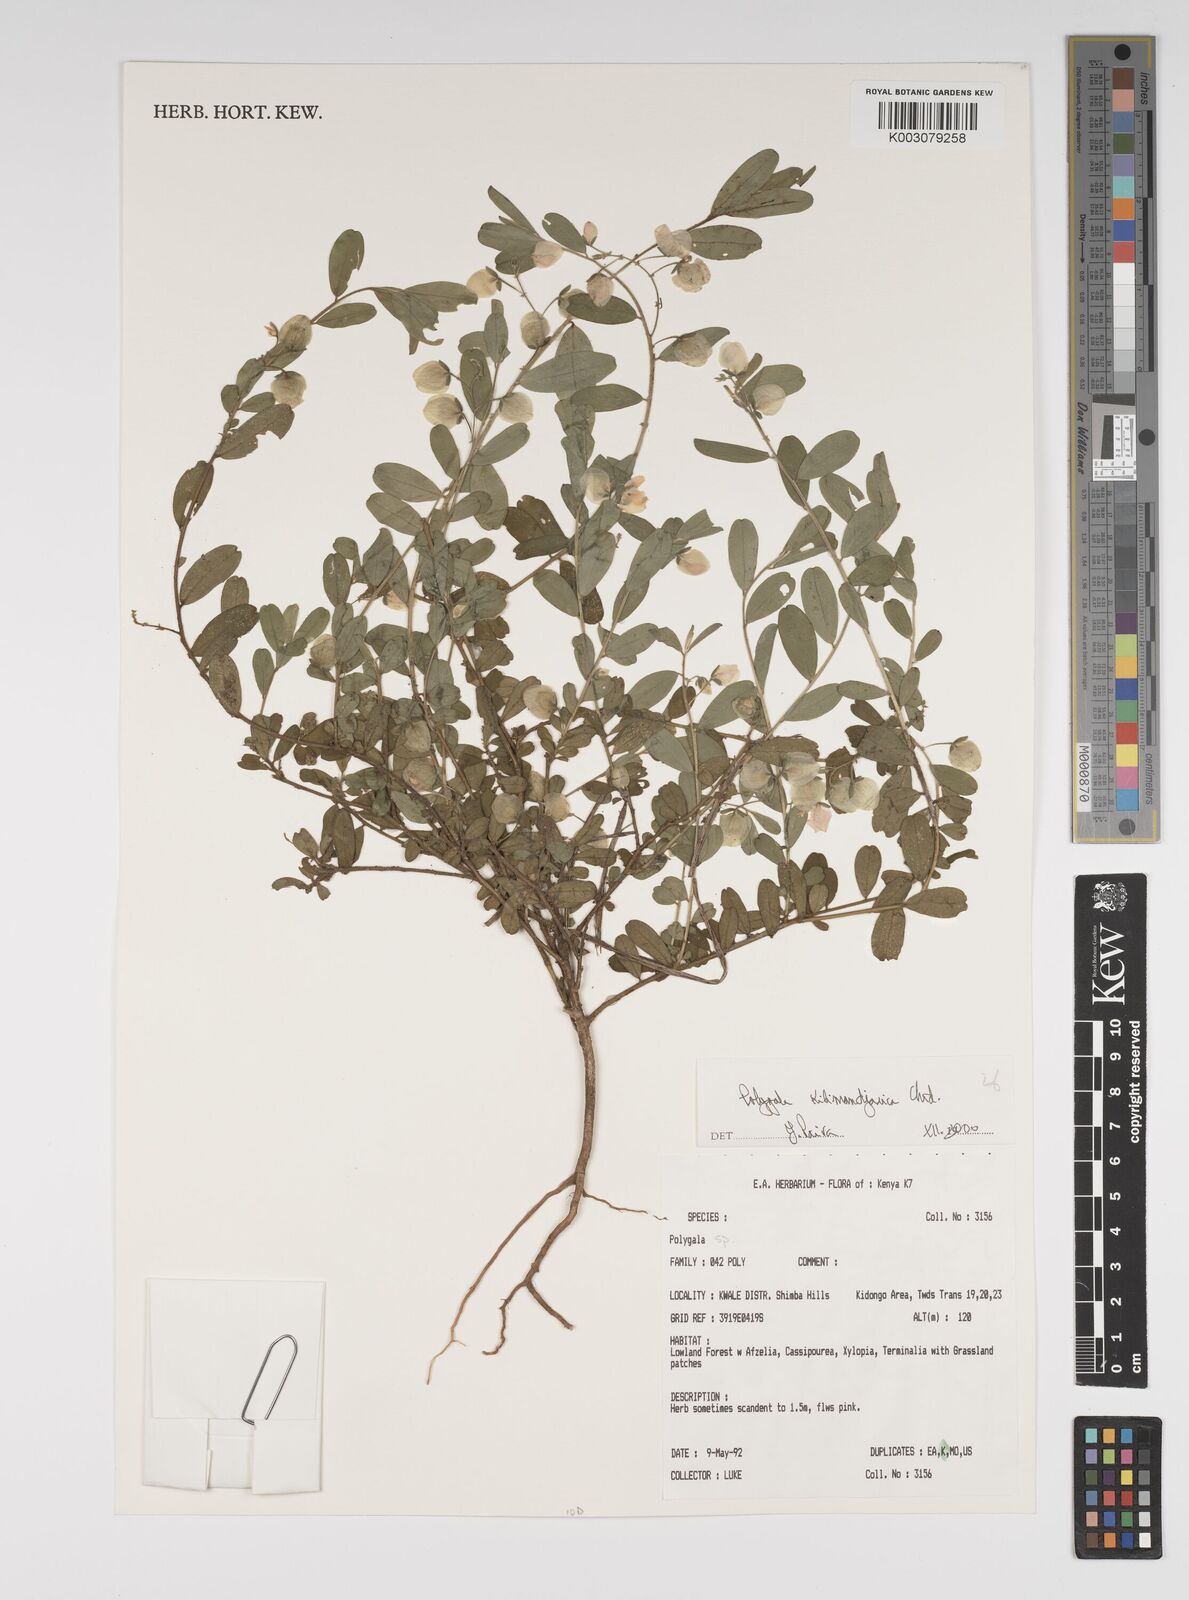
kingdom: Plantae
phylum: Tracheophyta
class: Magnoliopsida
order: Fabales
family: Polygalaceae
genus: Polygala
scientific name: Polygala kilimandjarica
